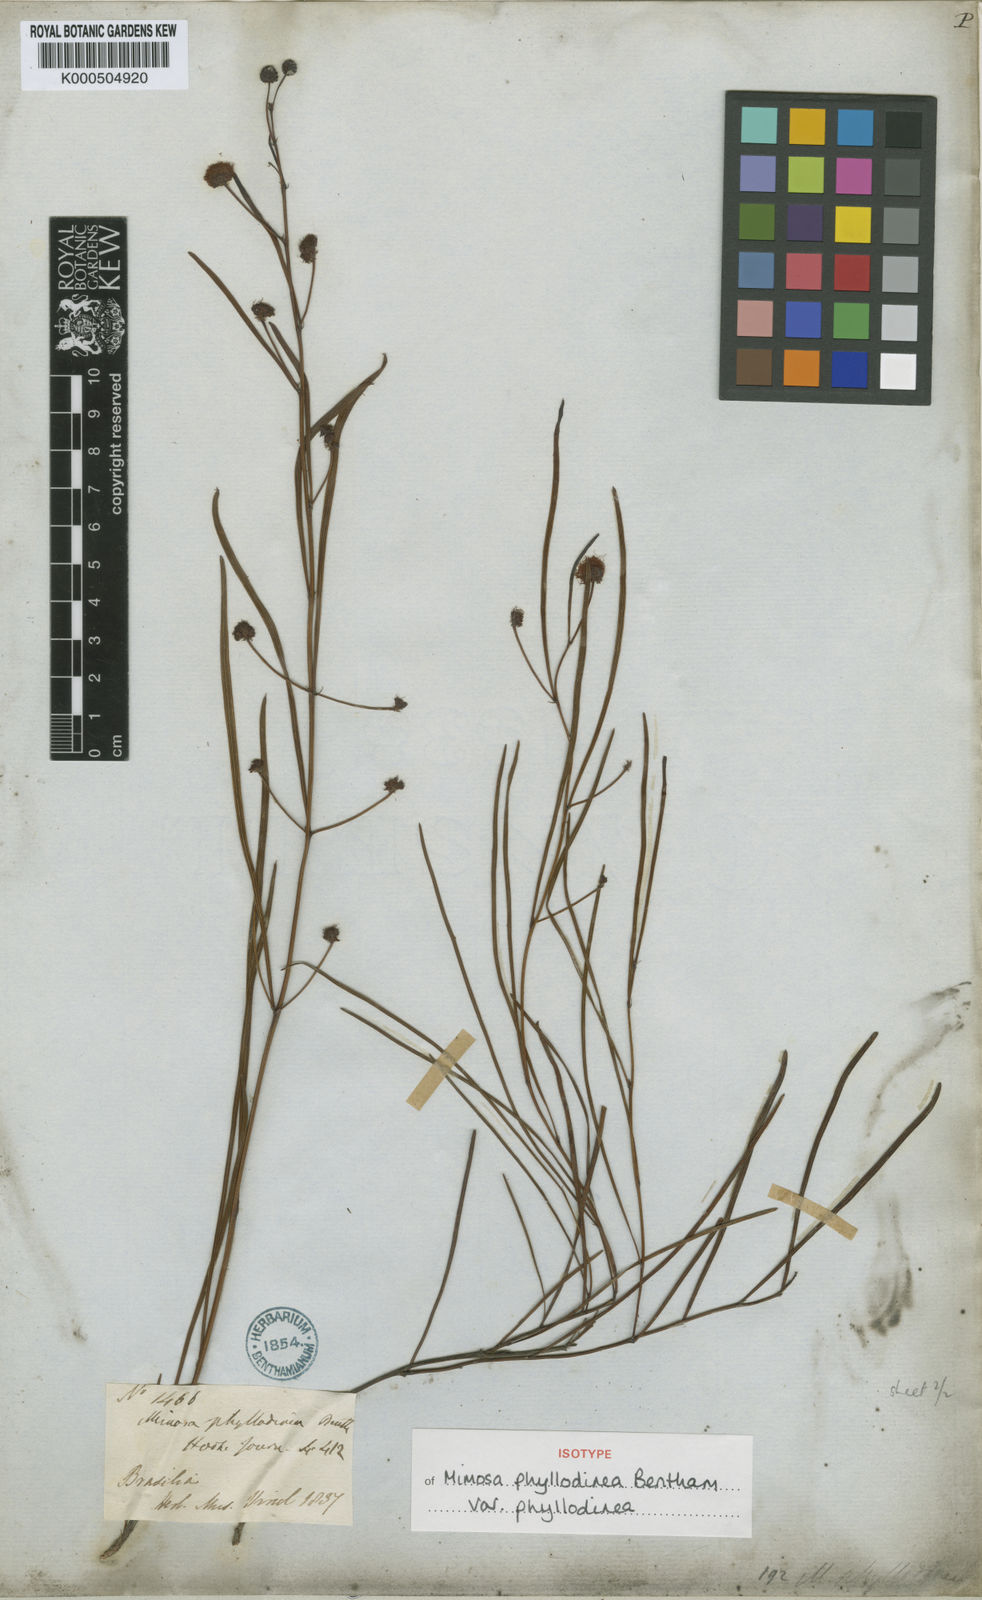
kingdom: Plantae
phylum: Tracheophyta
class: Magnoliopsida
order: Fabales
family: Fabaceae
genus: Mimosa
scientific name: Mimosa phyllodinea
